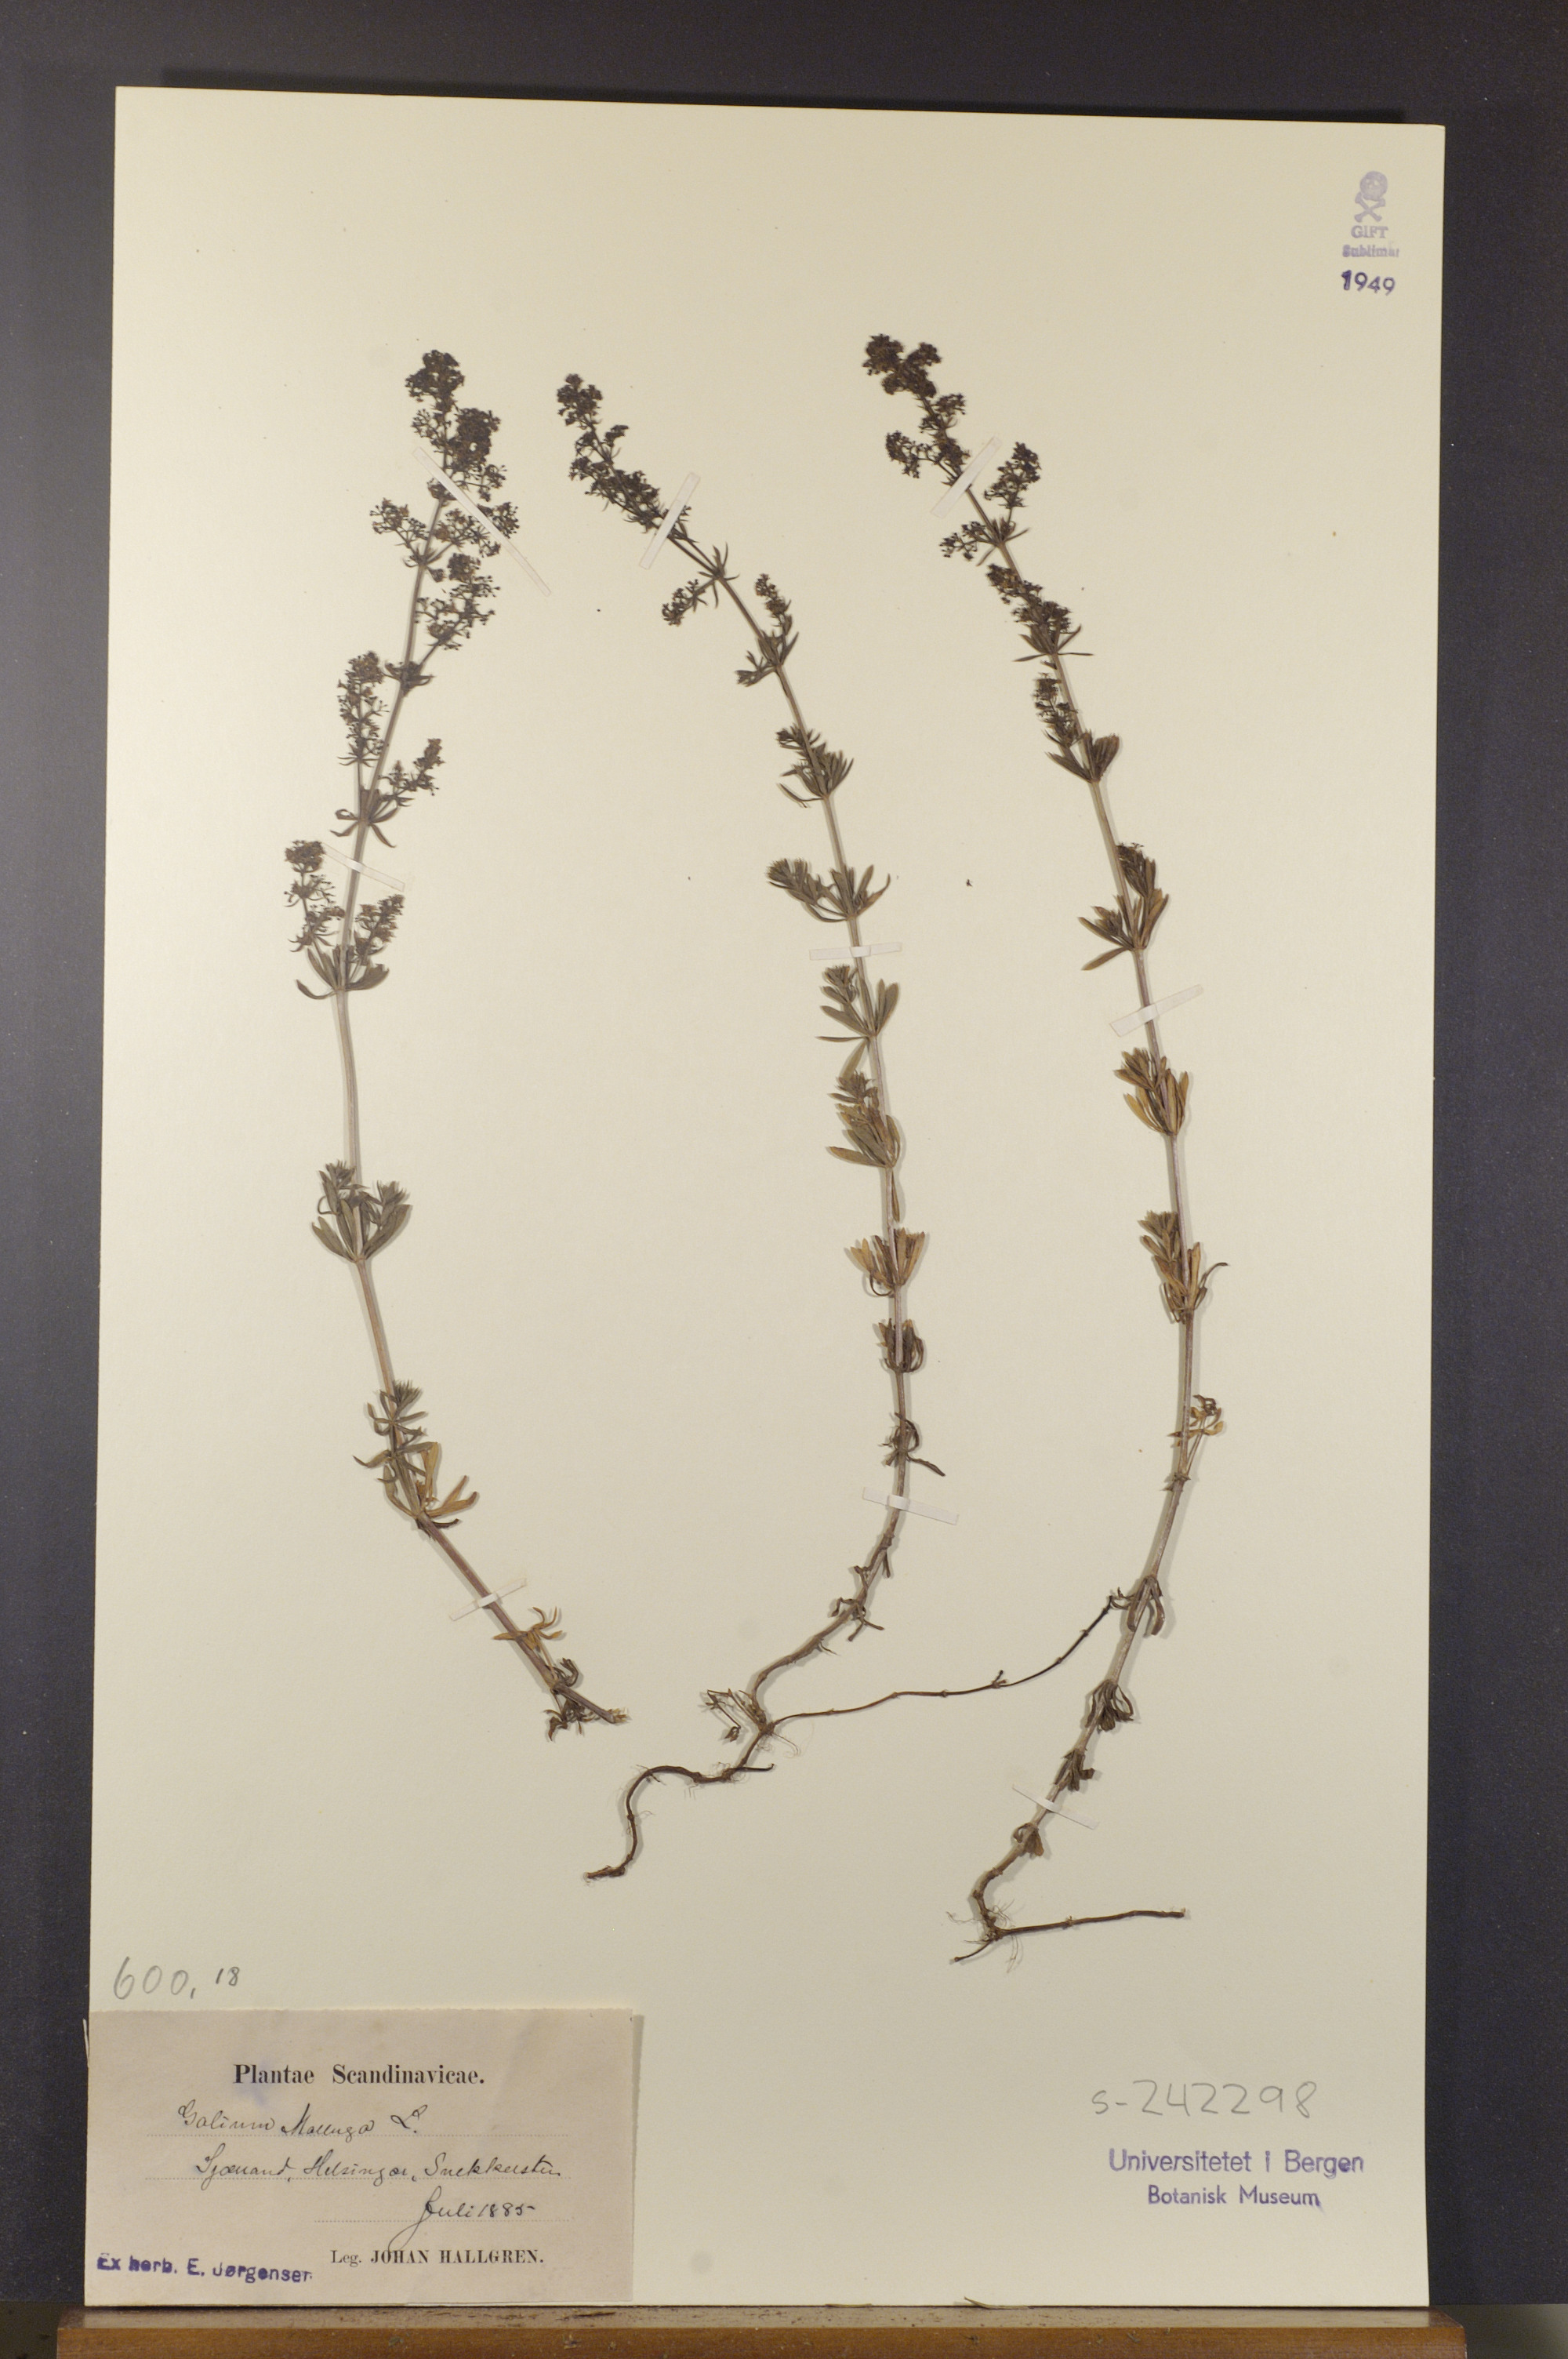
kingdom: Plantae
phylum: Tracheophyta
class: Magnoliopsida
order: Gentianales
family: Rubiaceae
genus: Galium
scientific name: Galium mollugo
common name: Hedge bedstraw
